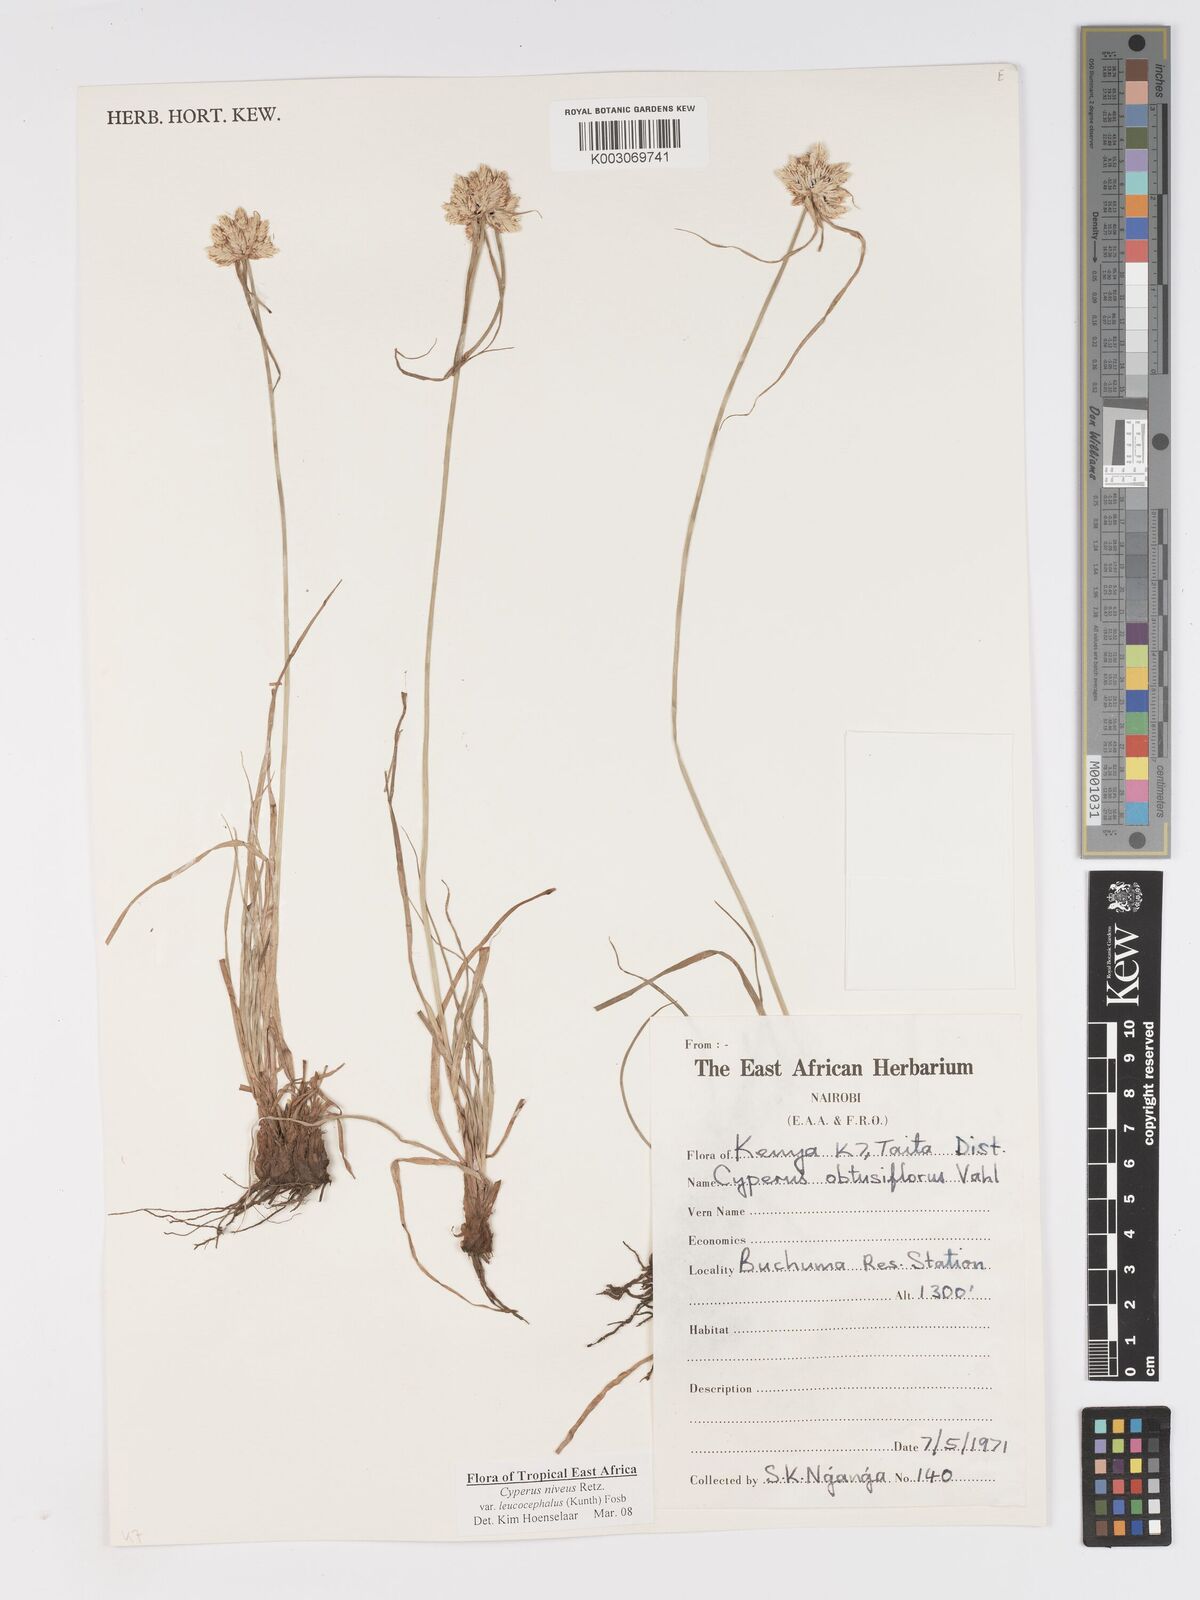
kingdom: Plantae
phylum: Tracheophyta
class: Liliopsida
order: Poales
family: Cyperaceae
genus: Cyperus
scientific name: Cyperus niveus
